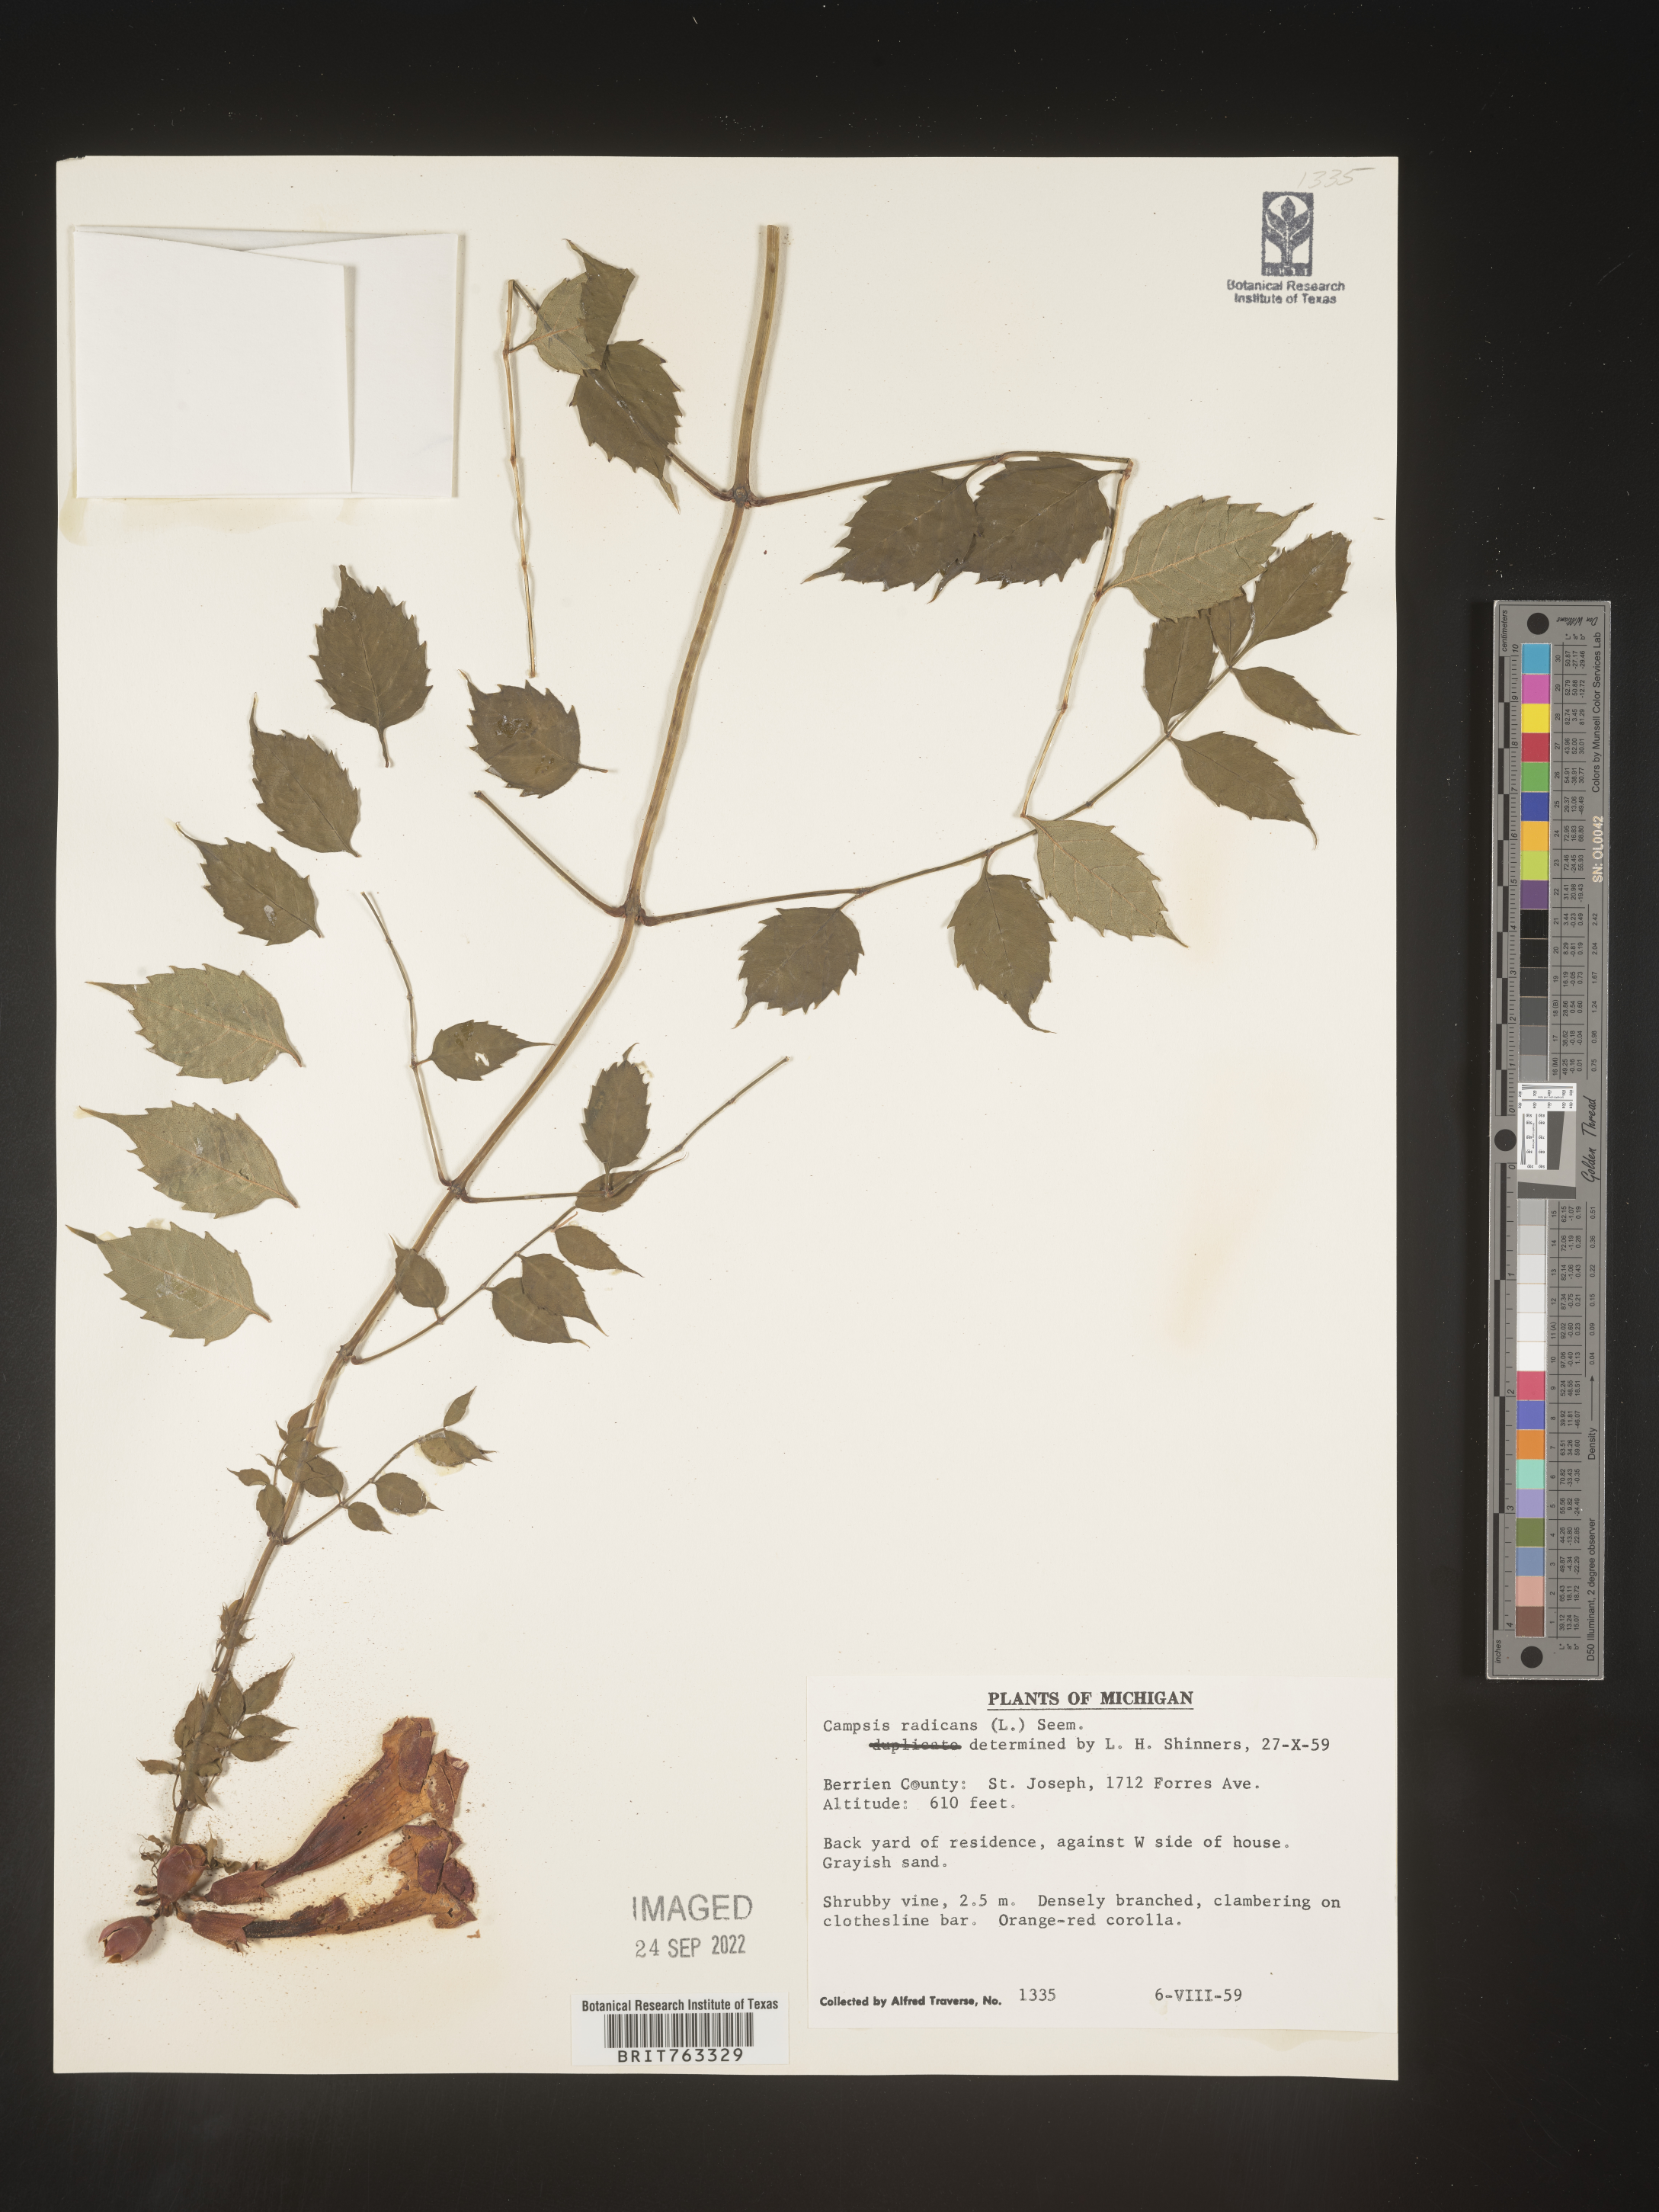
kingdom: Plantae
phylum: Tracheophyta
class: Magnoliopsida
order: Lamiales
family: Bignoniaceae
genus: Campsis
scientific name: Campsis radicans
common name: Trumpet-creeper
